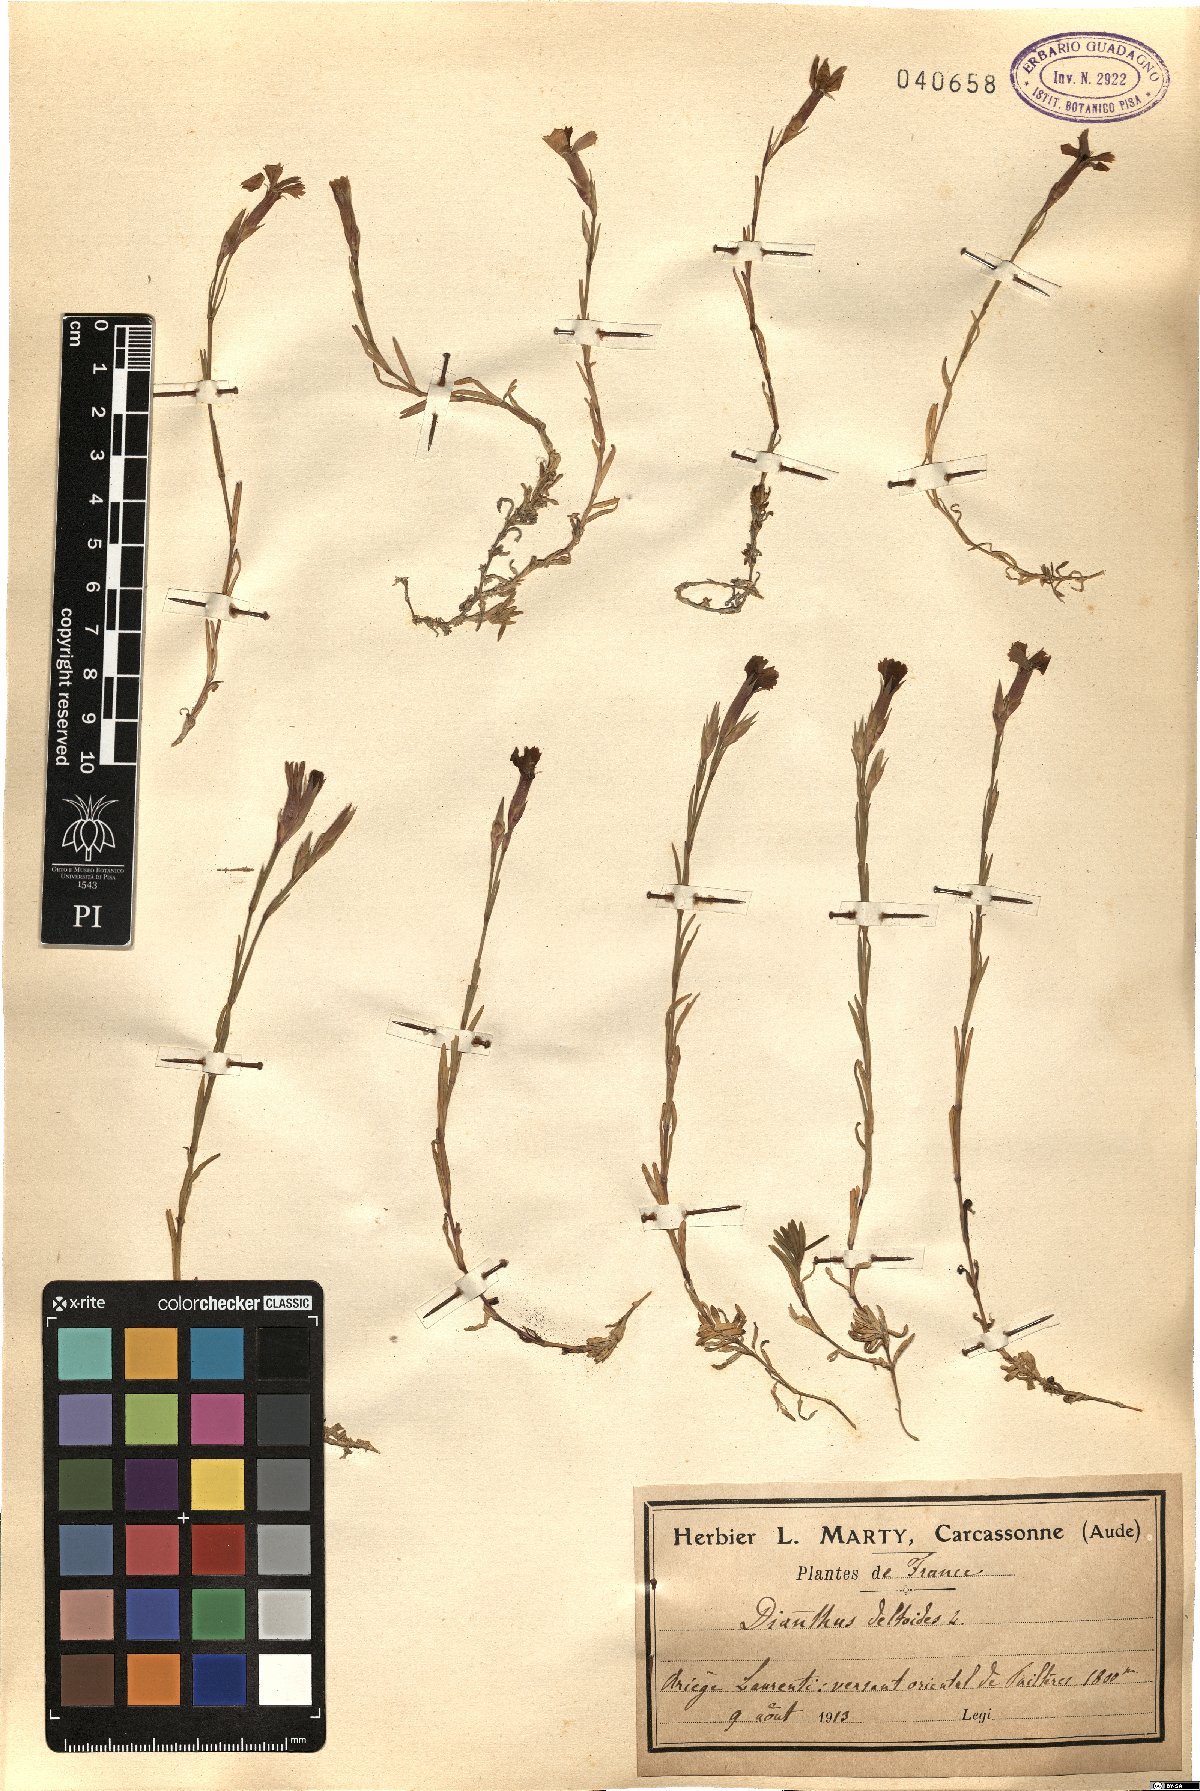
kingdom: Plantae
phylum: Tracheophyta
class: Magnoliopsida
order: Caryophyllales
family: Caryophyllaceae
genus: Dianthus
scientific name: Dianthus deltoides
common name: Maiden pink
